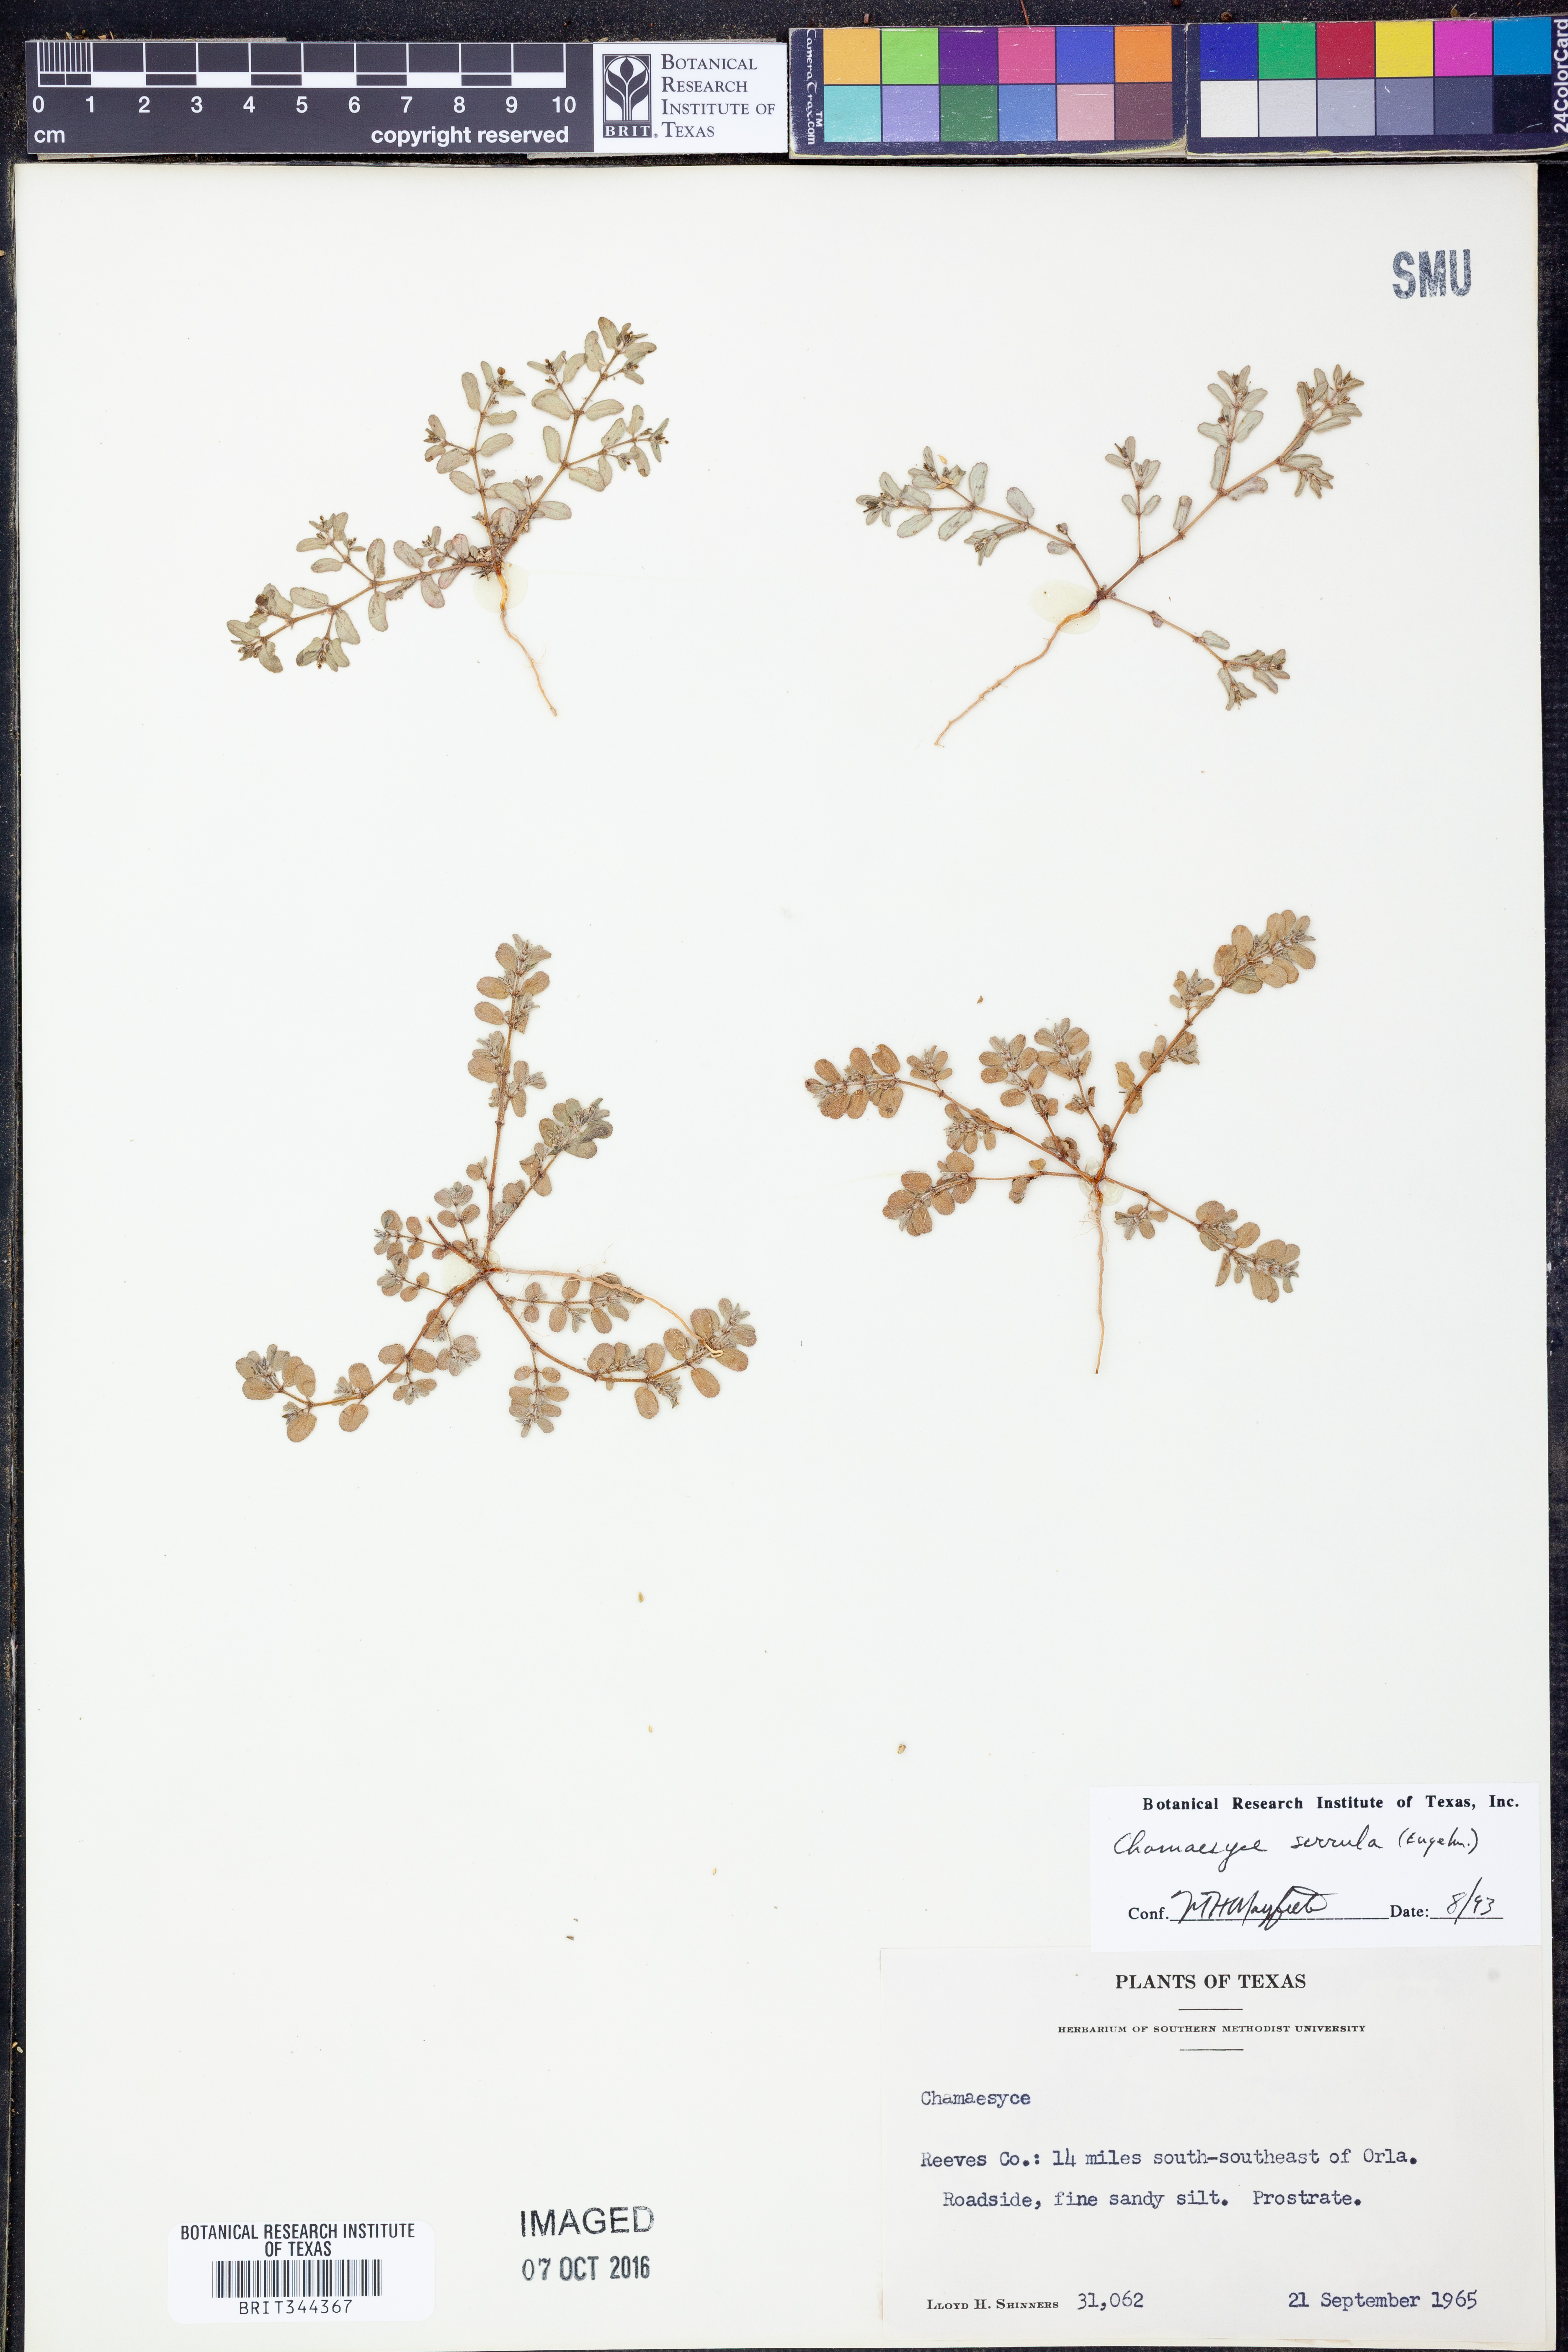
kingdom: Plantae
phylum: Tracheophyta
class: Magnoliopsida
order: Malpighiales
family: Euphorbiaceae
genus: Euphorbia
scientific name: Euphorbia serrula
